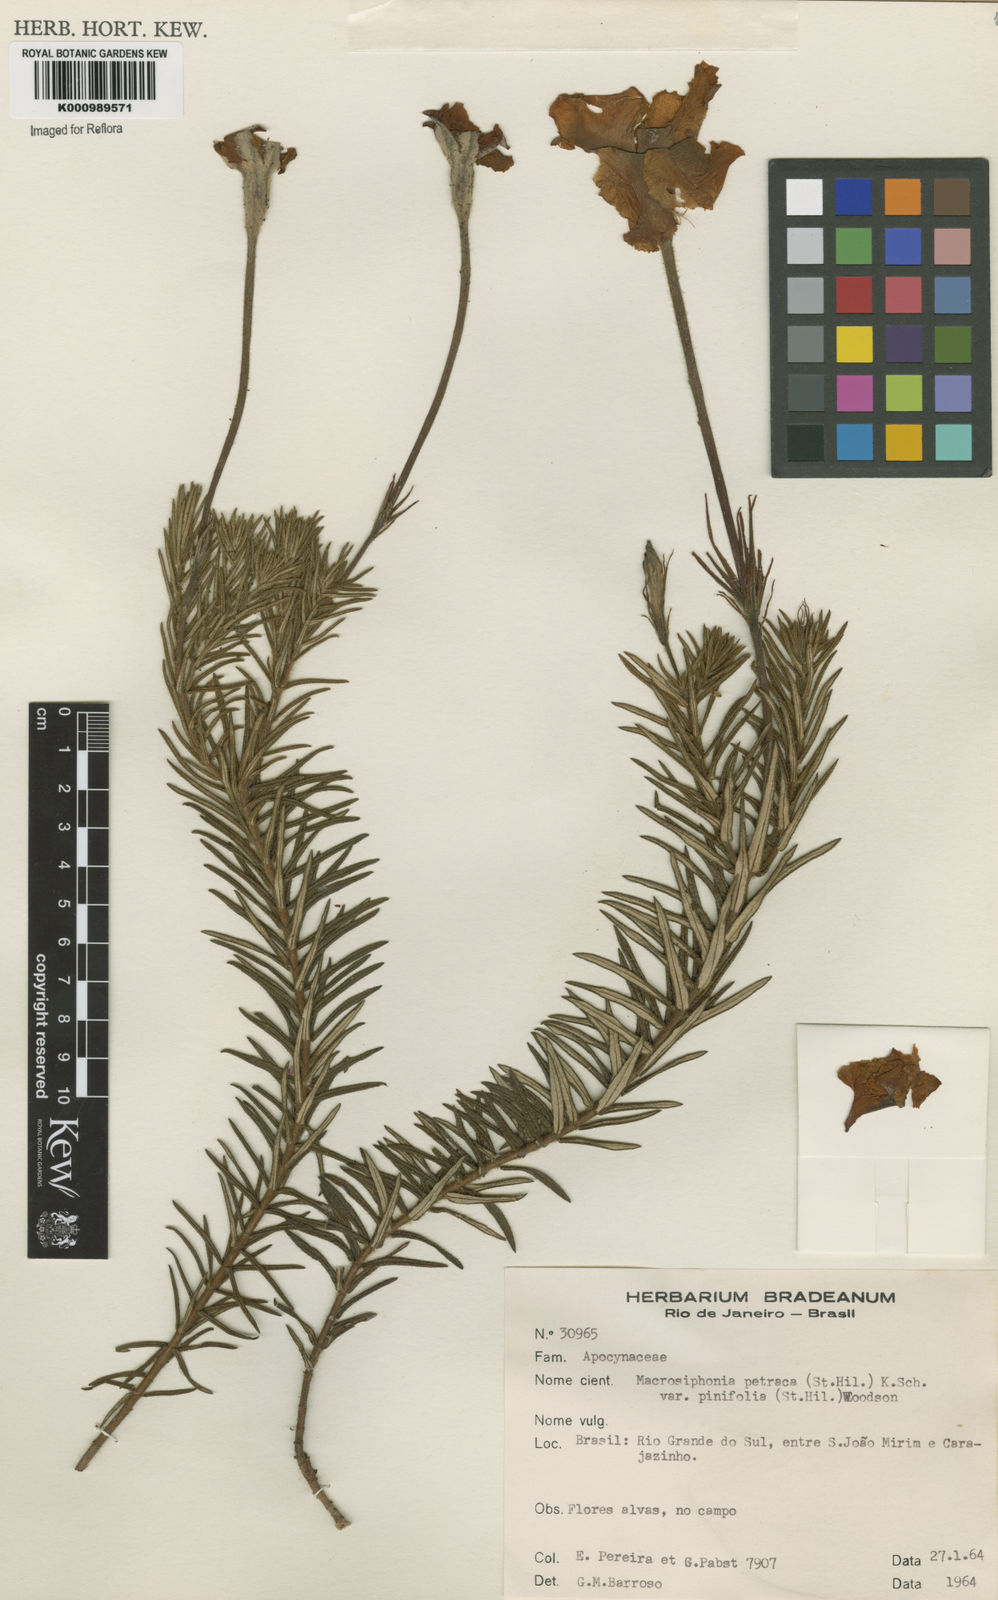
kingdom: Plantae
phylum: Tracheophyta
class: Magnoliopsida
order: Gentianales
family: Apocynaceae
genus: Mandevilla
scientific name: Mandevilla petraea
